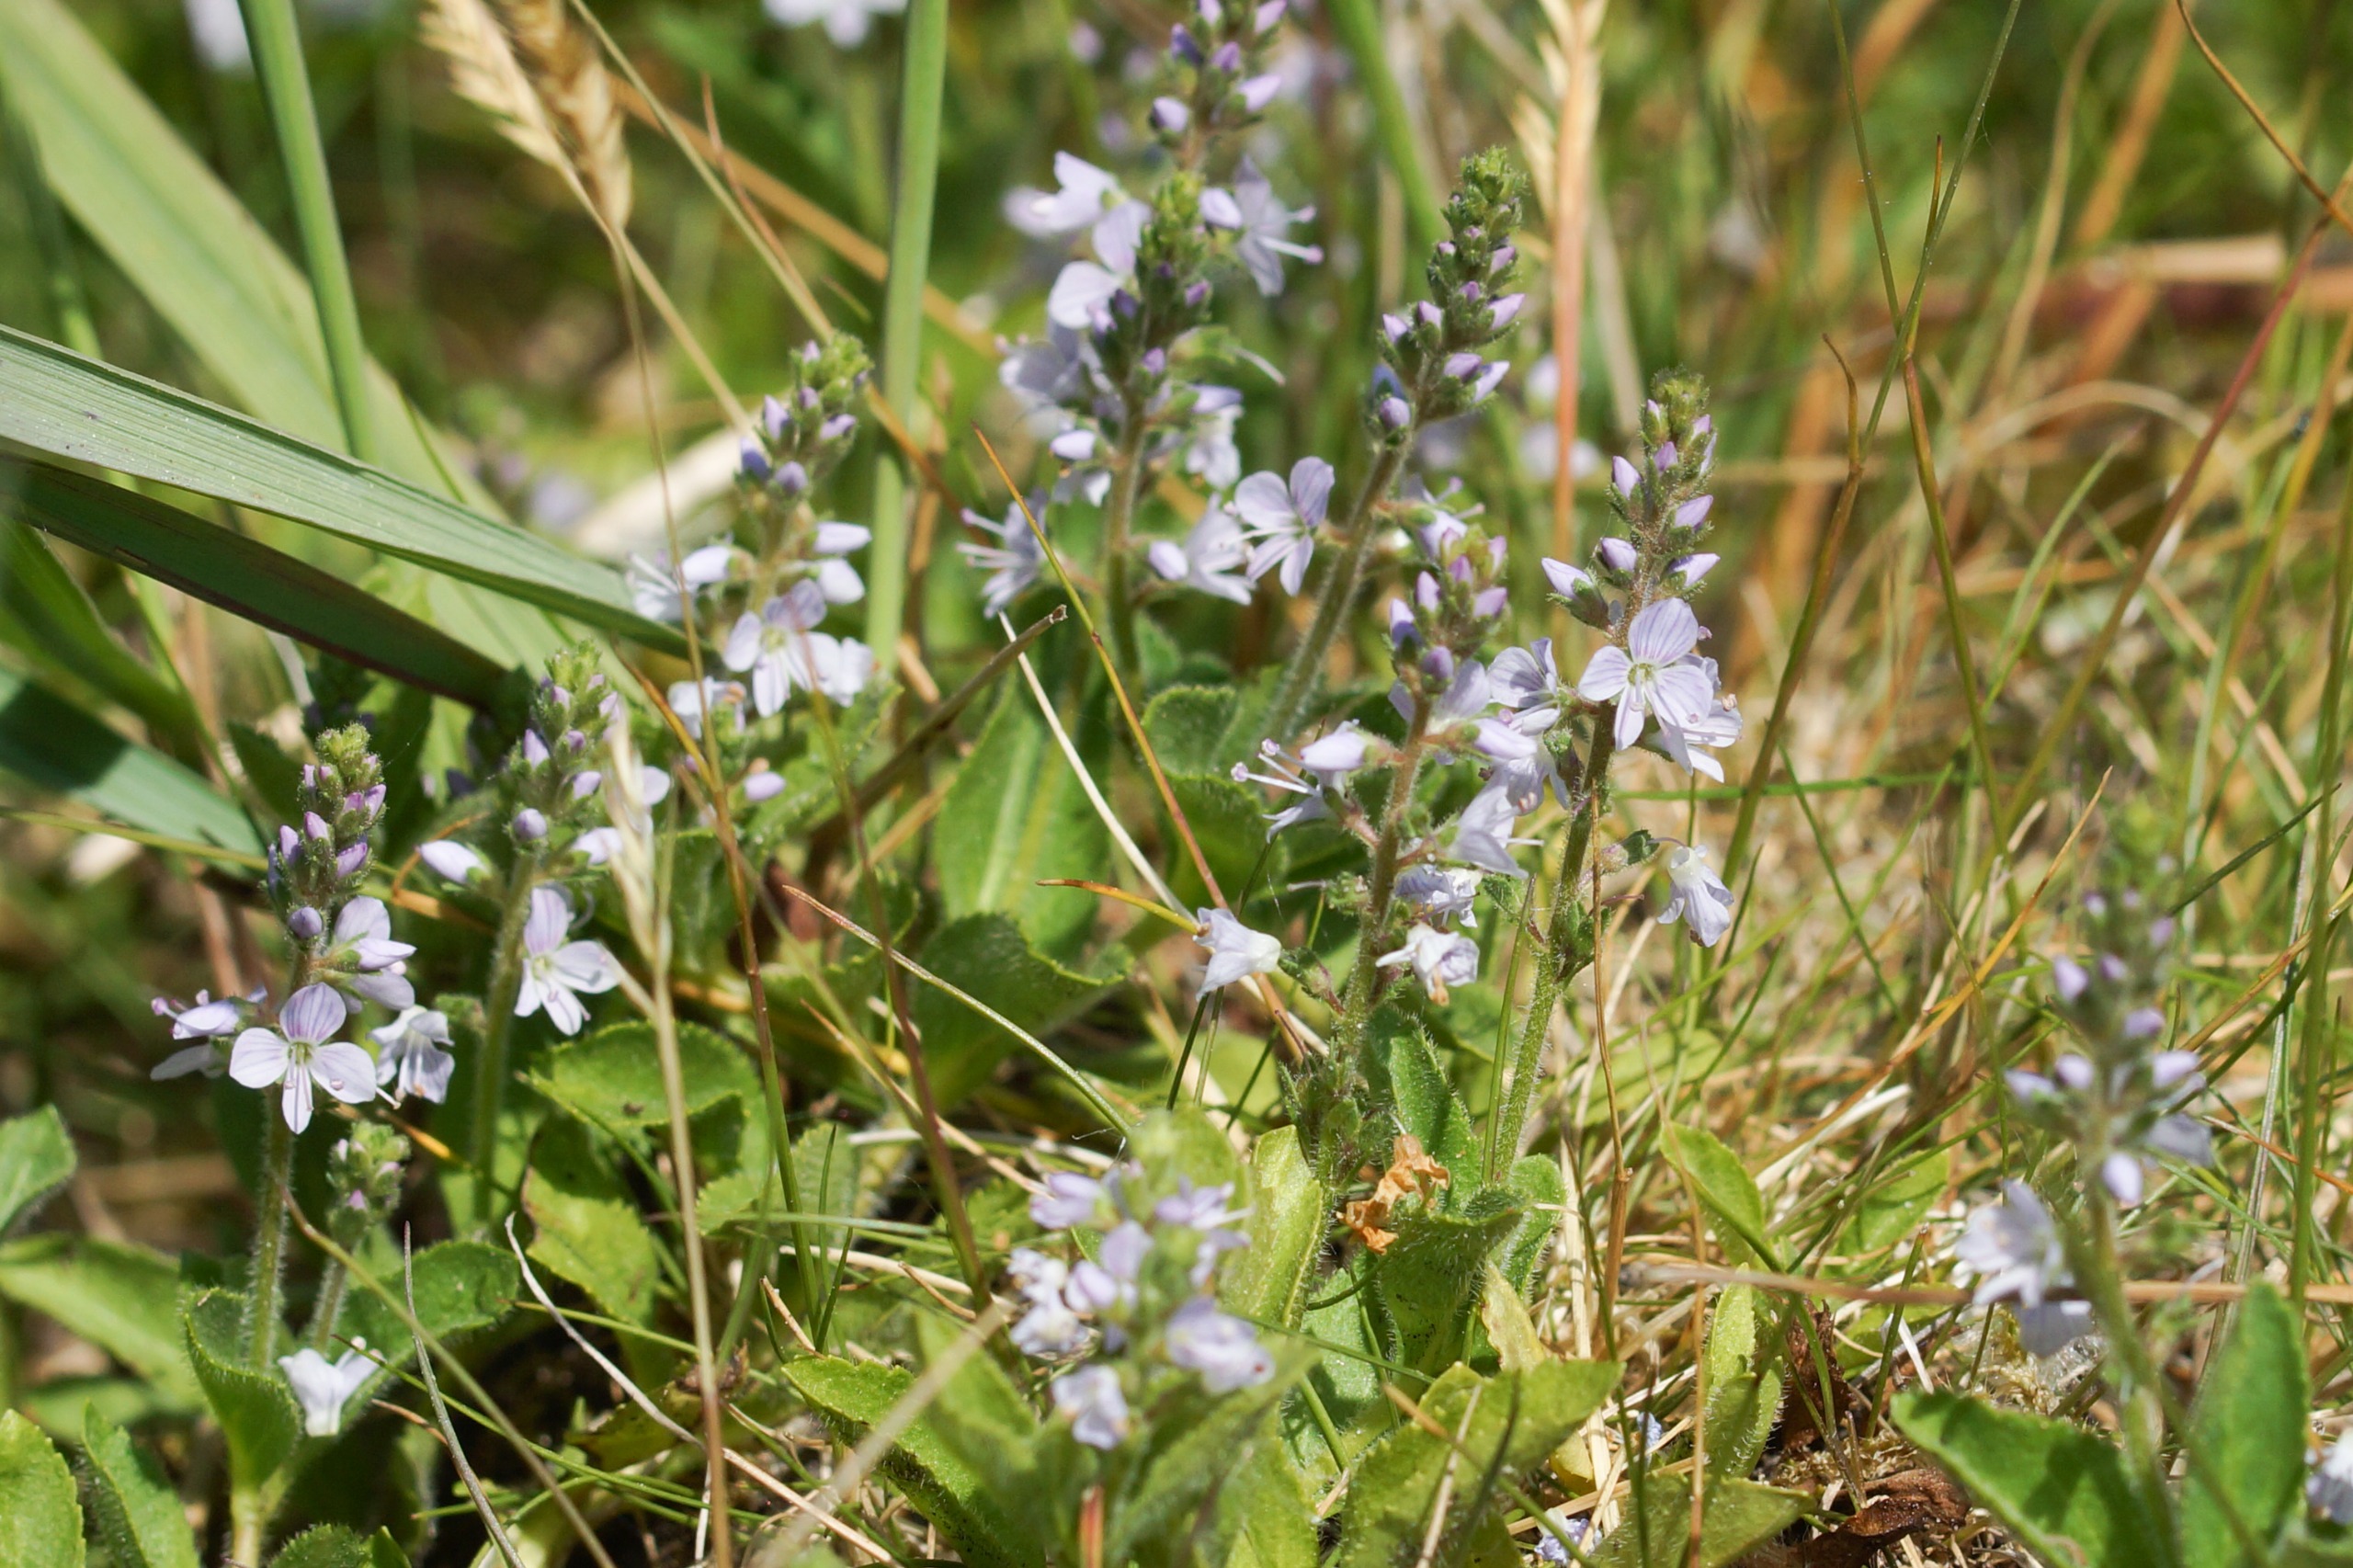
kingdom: Plantae
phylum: Tracheophyta
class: Magnoliopsida
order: Lamiales
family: Plantaginaceae
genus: Veronica
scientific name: Veronica officinalis
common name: Læge-ærenpris
